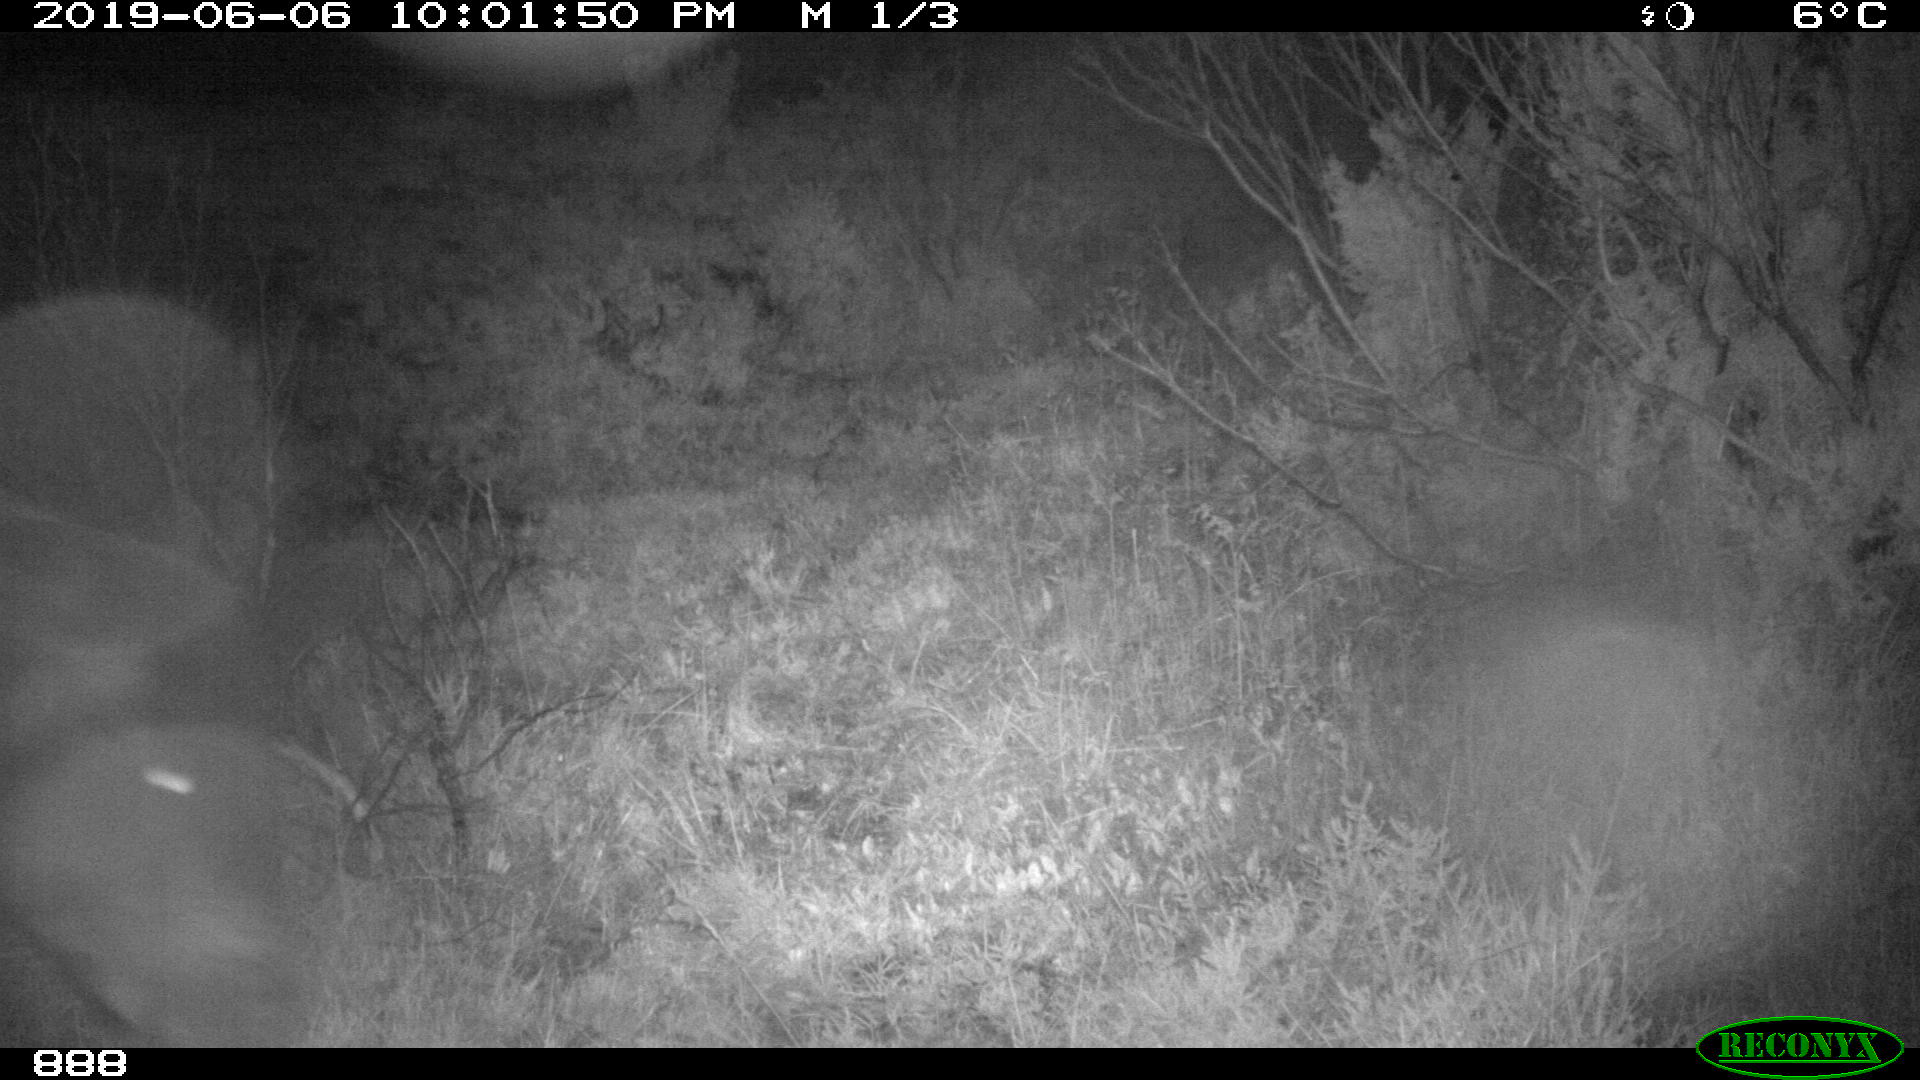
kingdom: Animalia
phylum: Chordata
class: Mammalia
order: Perissodactyla
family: Equidae
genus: Equus
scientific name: Equus caballus
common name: Horse
